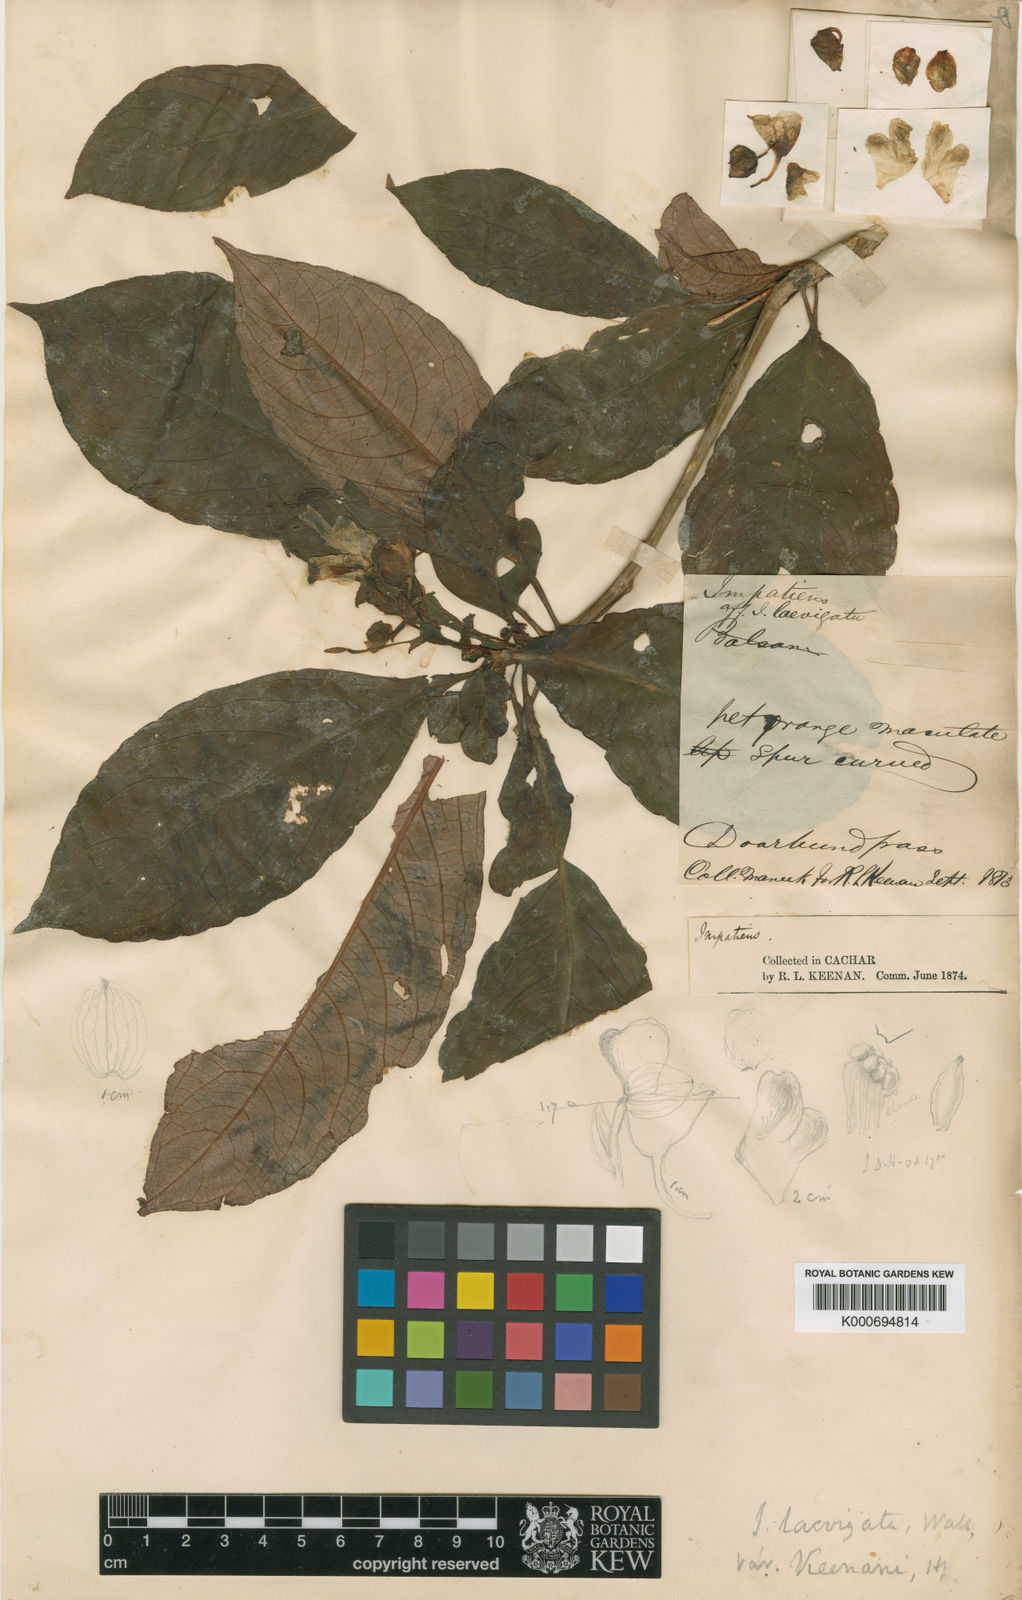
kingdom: Plantae
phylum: Tracheophyta
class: Magnoliopsida
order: Ericales
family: Balsaminaceae
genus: Impatiens
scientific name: Impatiens
